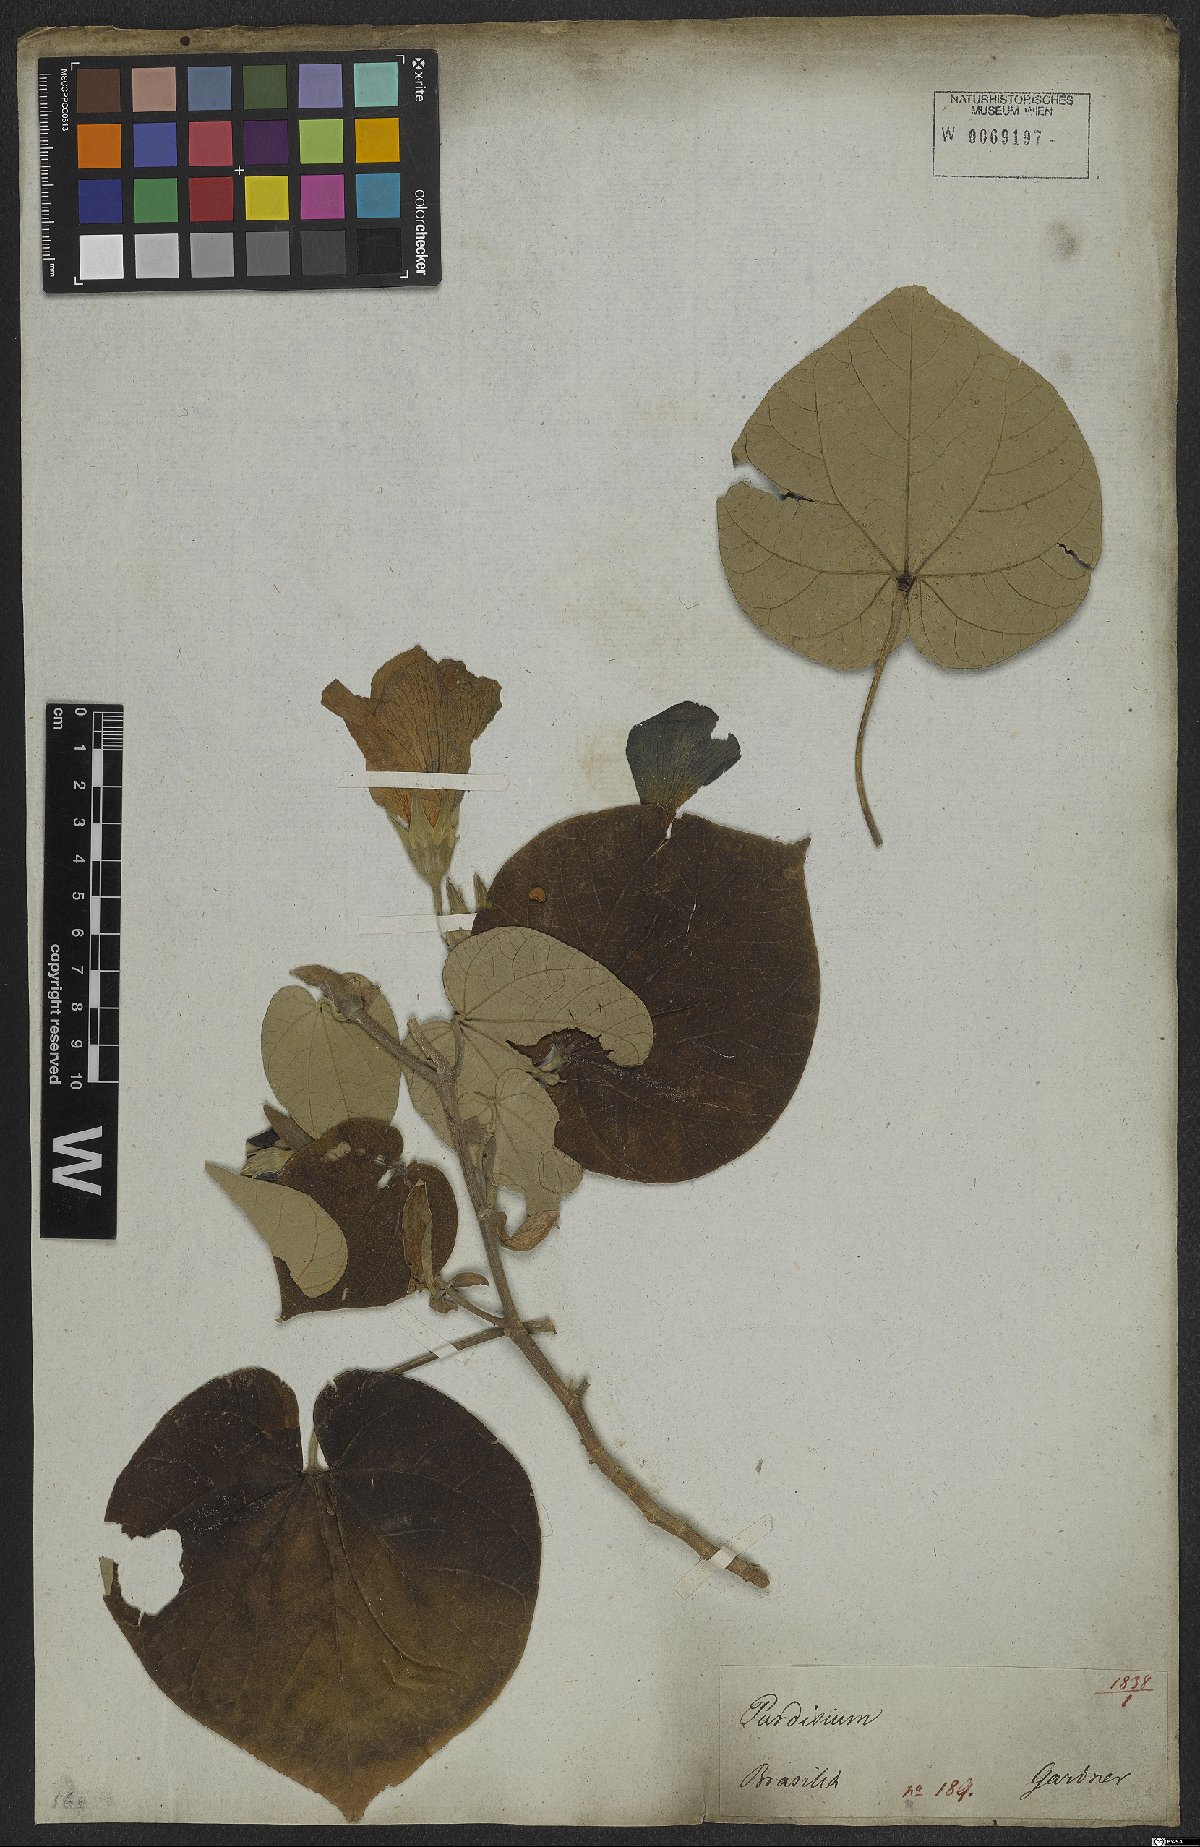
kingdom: Plantae
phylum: Tracheophyta
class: Magnoliopsida
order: Malvales
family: Malvaceae
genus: Talipariti
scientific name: Talipariti tiliaceum
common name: Sea hibiscus
